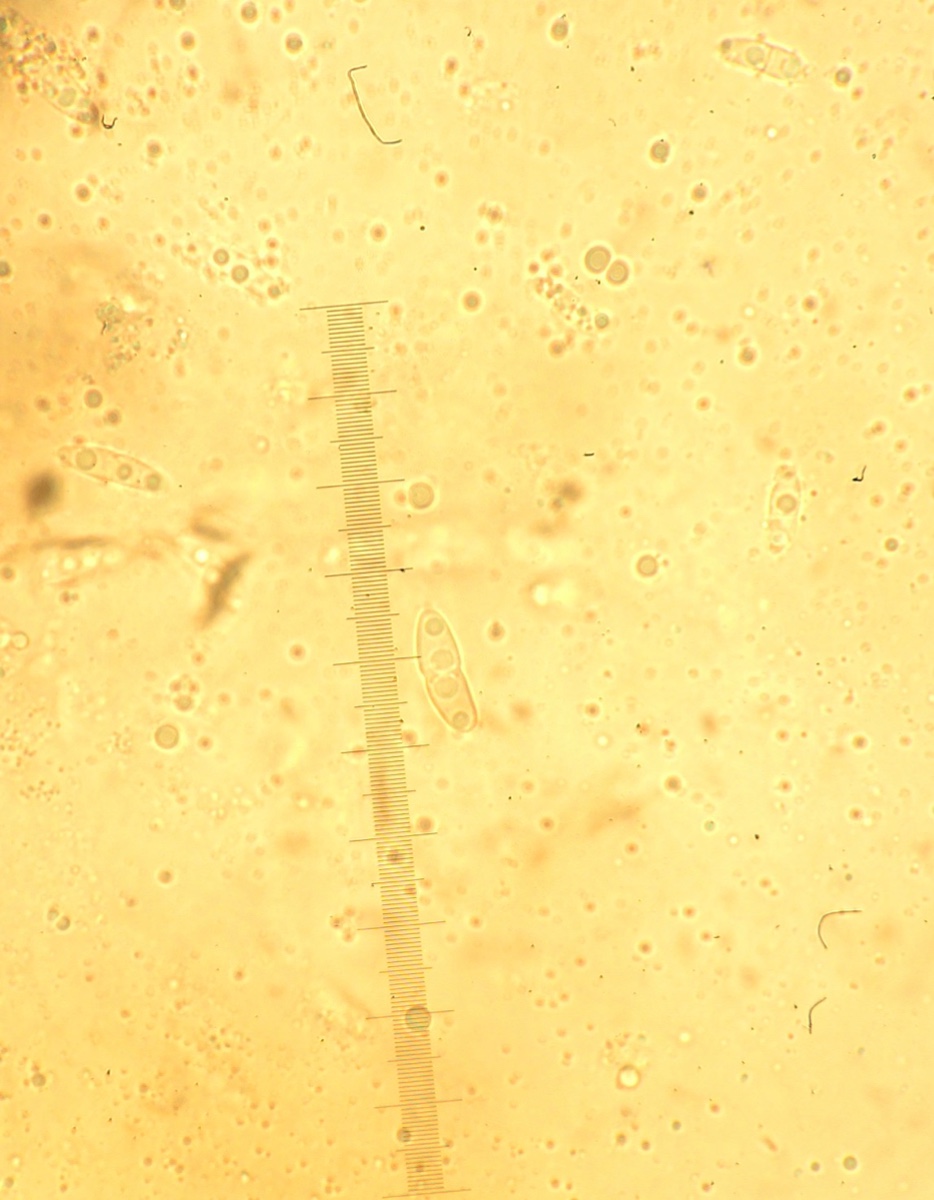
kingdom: Fungi
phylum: Ascomycota
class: Sordariomycetes
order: Diaporthales
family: Diaporthaceae
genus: Phomopsis
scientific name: Phomopsis verbasci
